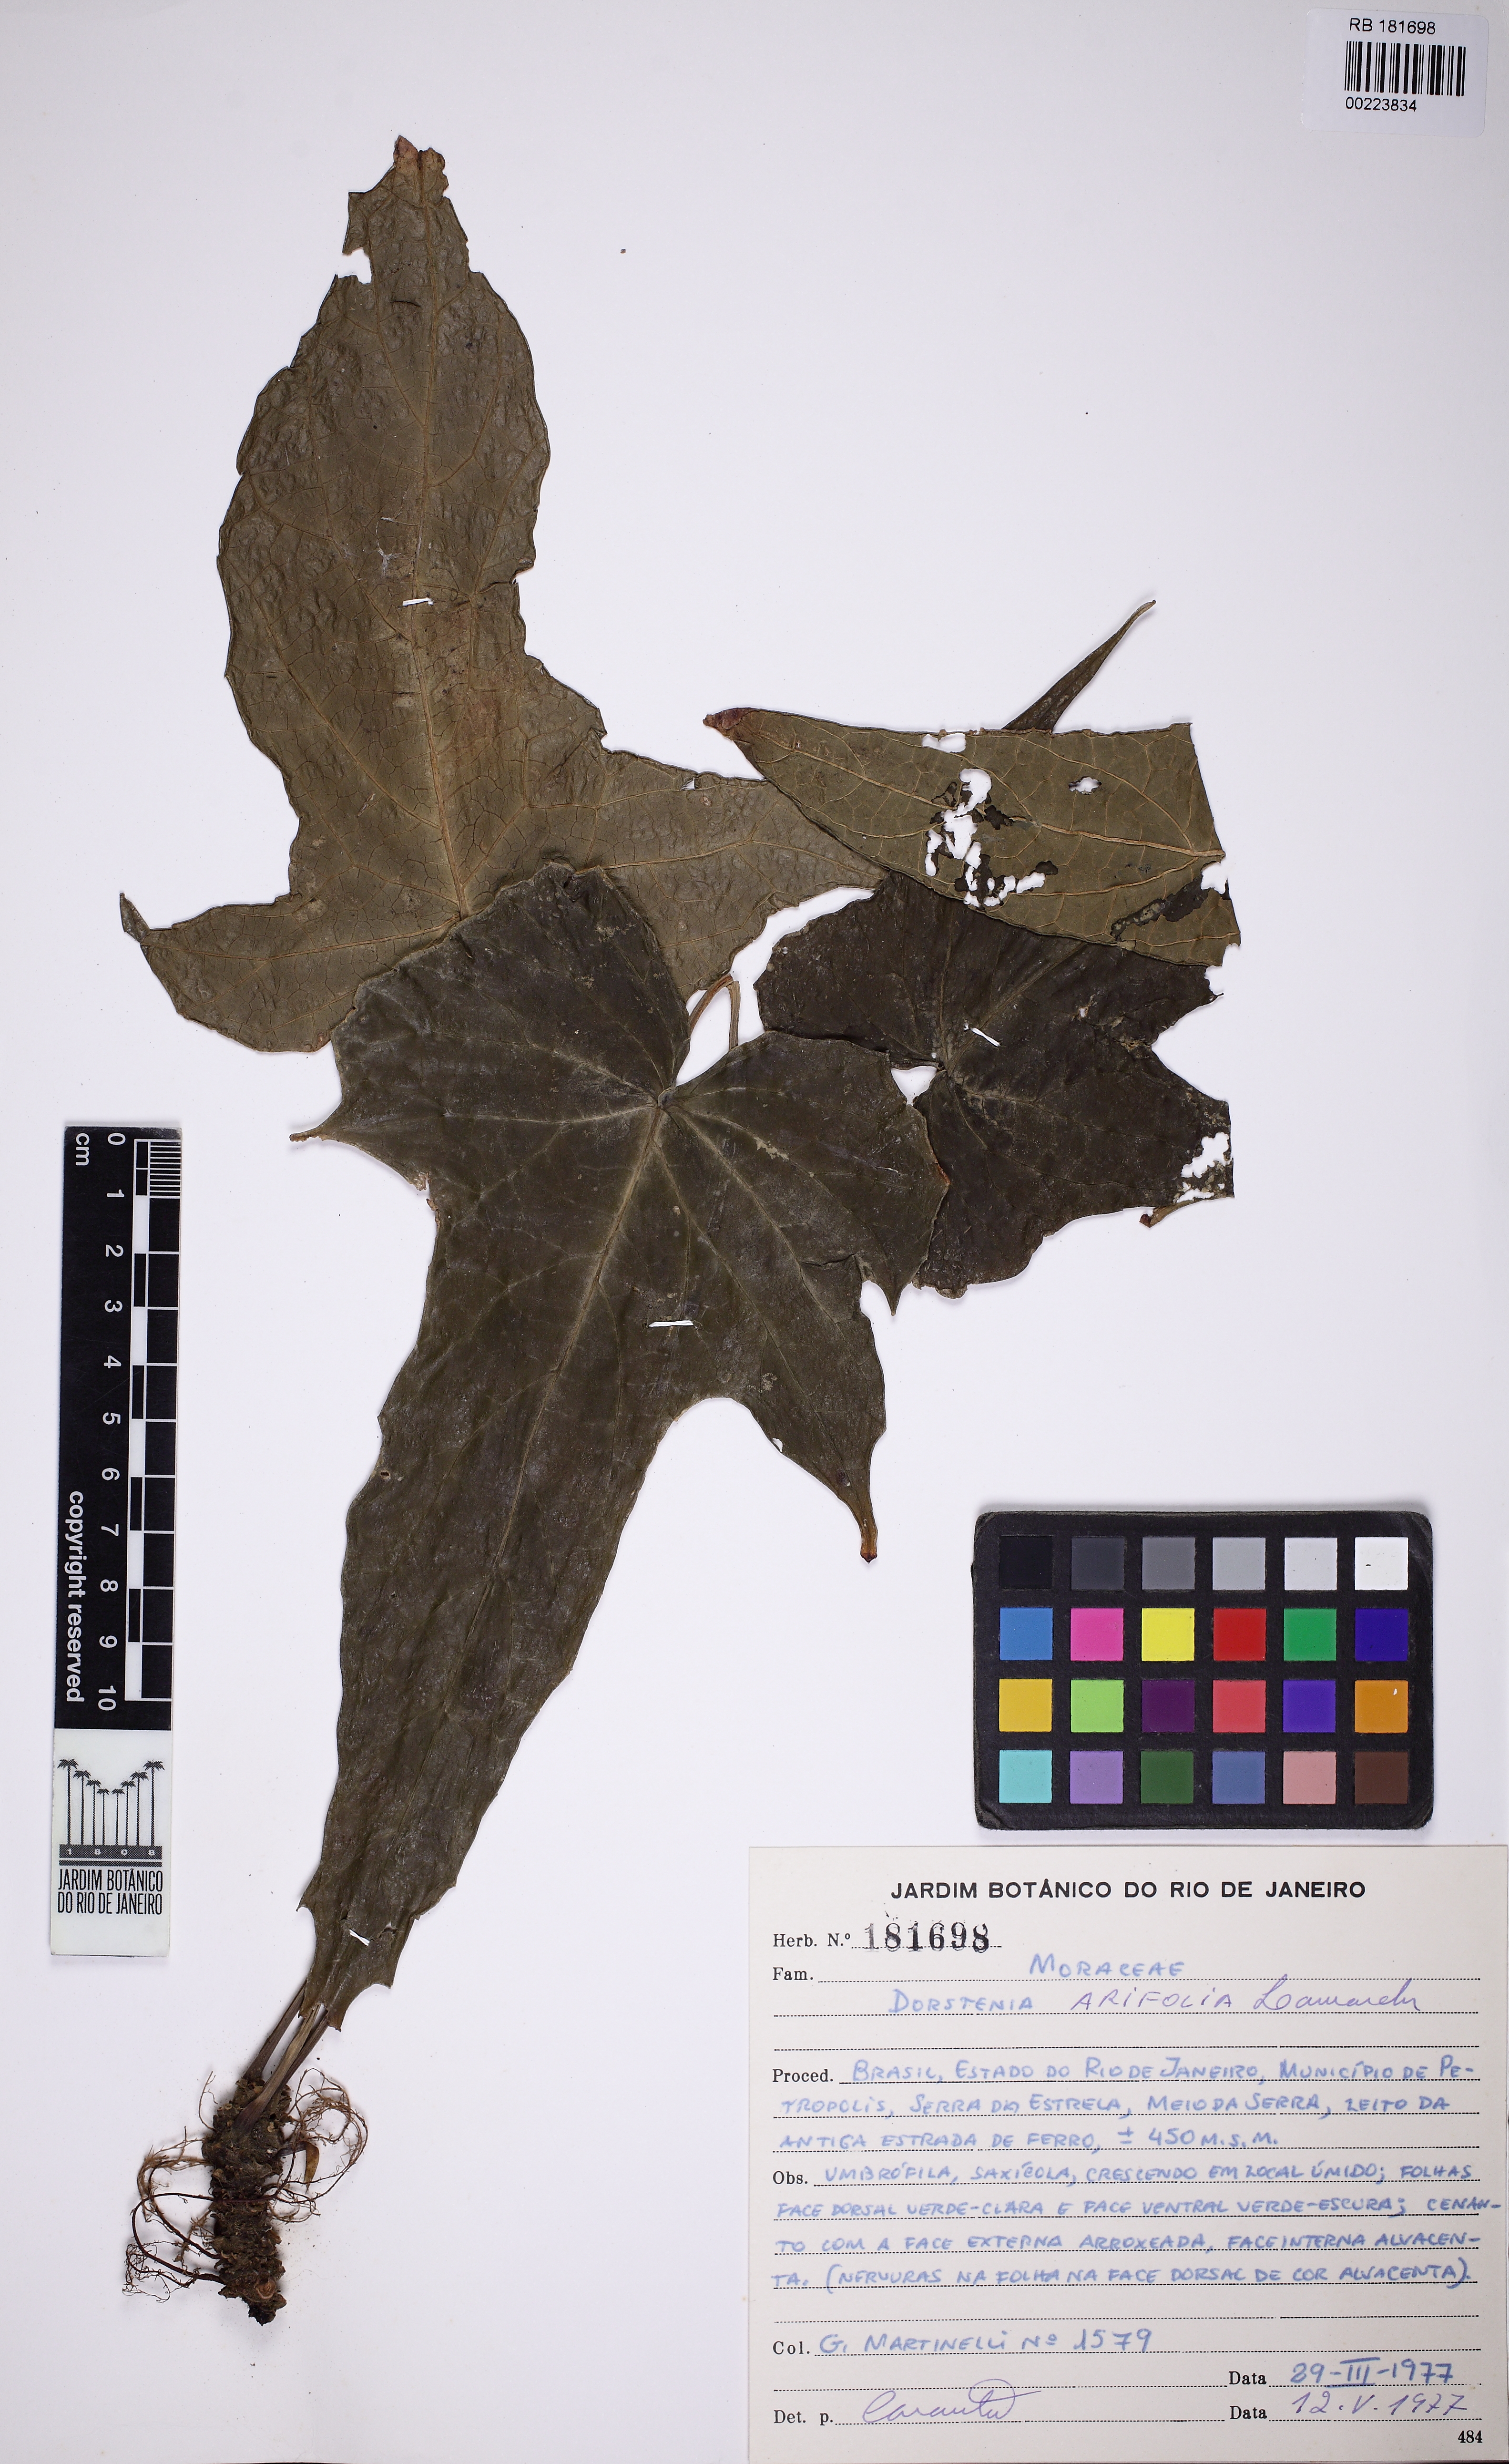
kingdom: Plantae
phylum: Tracheophyta
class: Magnoliopsida
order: Rosales
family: Moraceae
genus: Dorstenia
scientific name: Dorstenia arifolia
